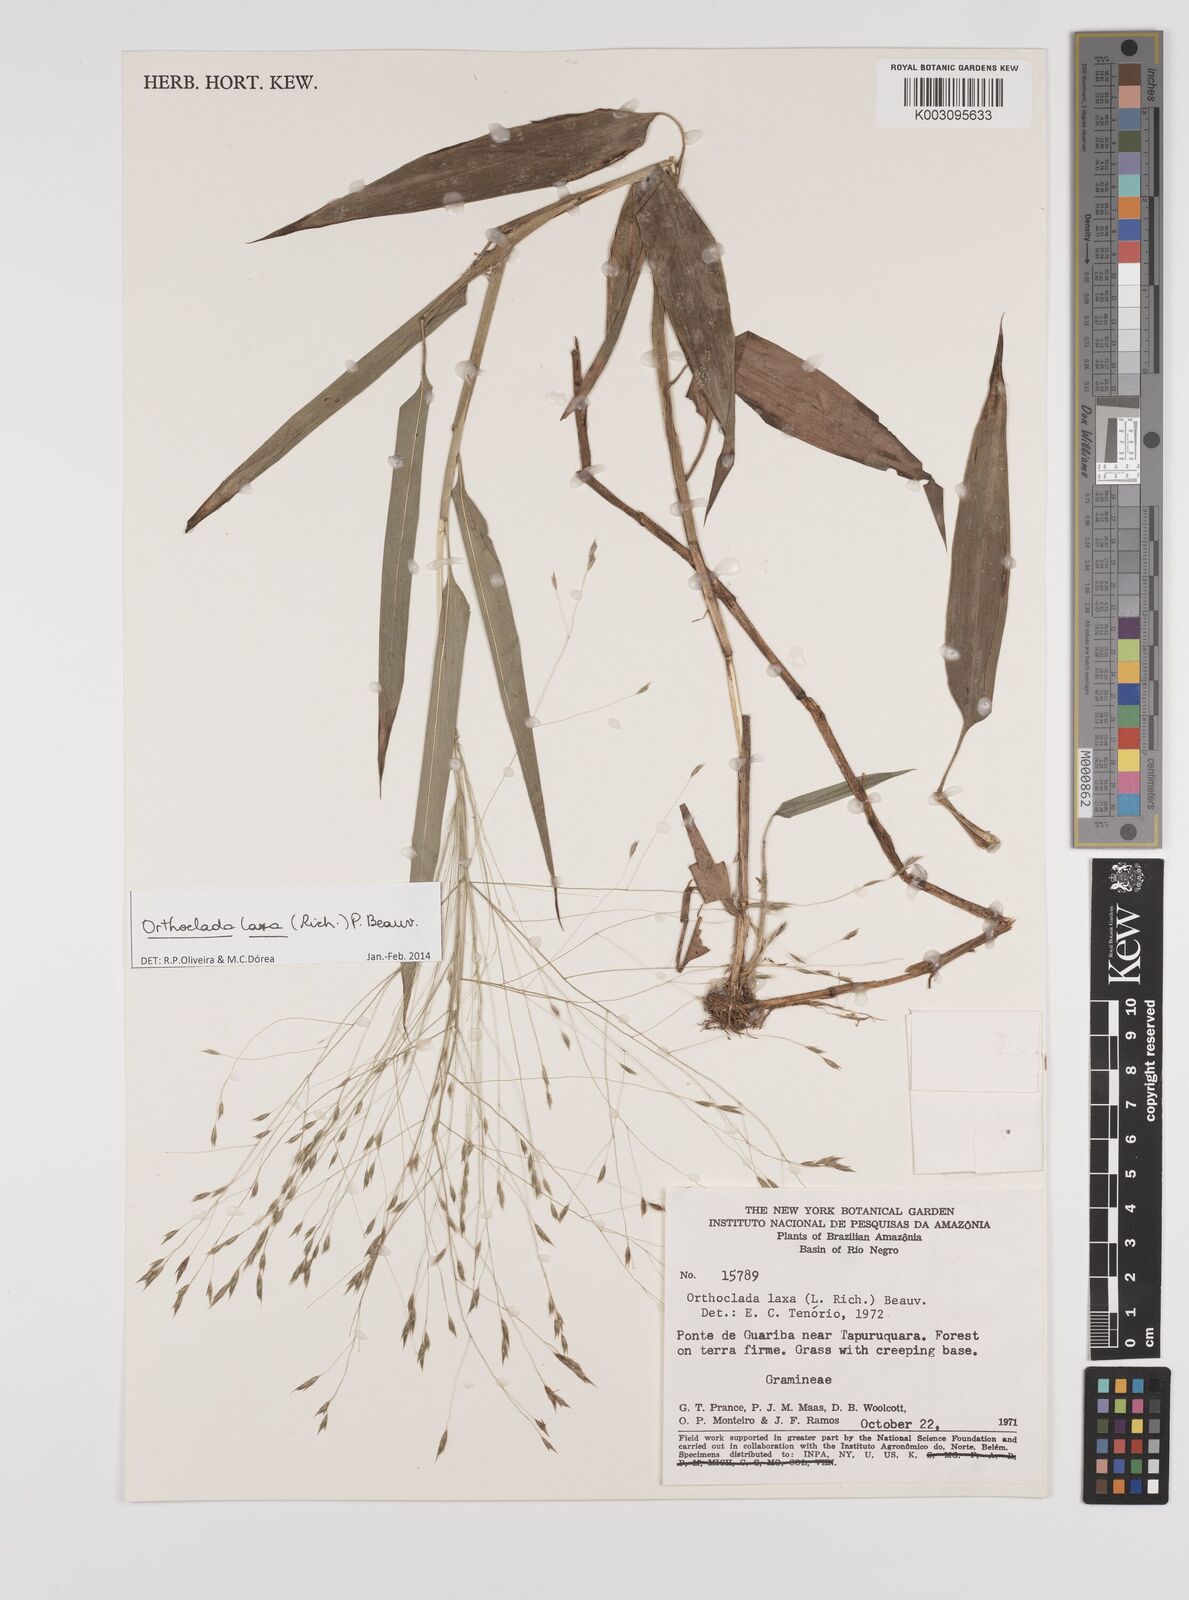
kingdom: Plantae
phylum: Tracheophyta
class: Liliopsida
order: Poales
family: Poaceae
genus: Orthoclada
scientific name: Orthoclada laxa
